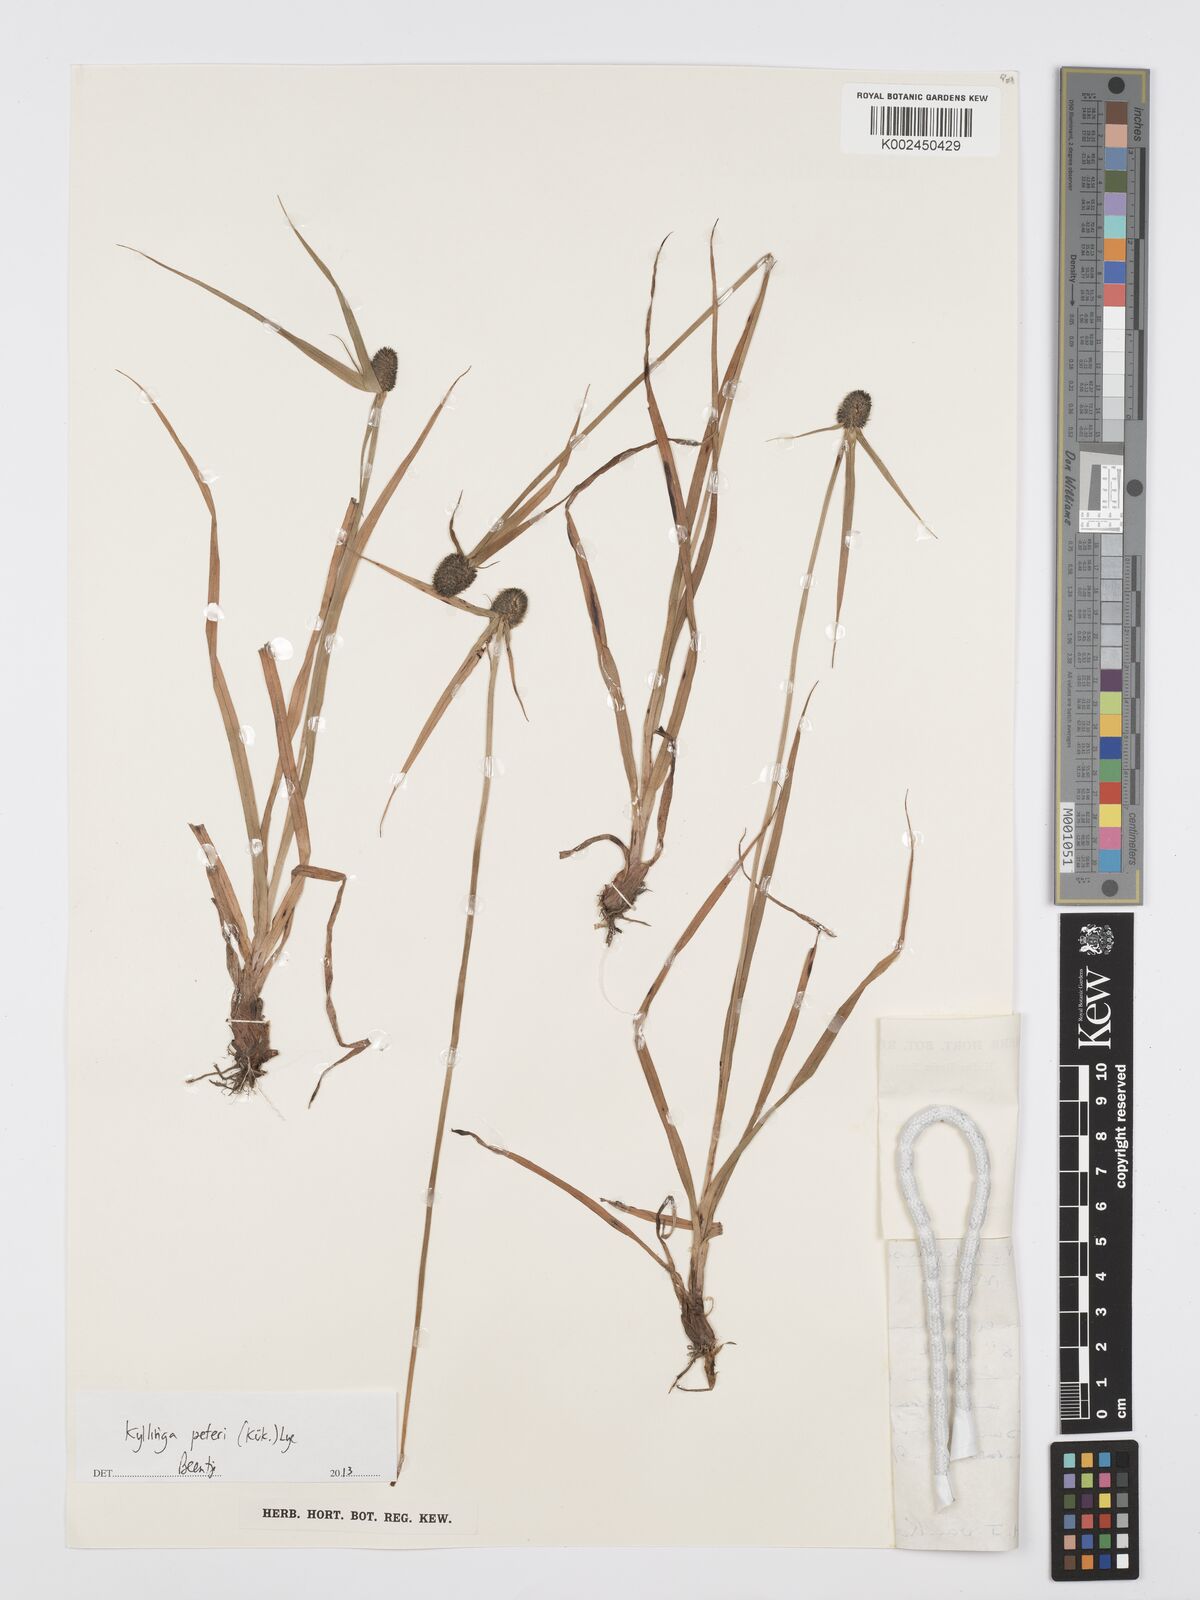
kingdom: Plantae
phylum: Tracheophyta
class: Liliopsida
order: Poales
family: Cyperaceae
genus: Cyperus
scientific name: Cyperus peteri
